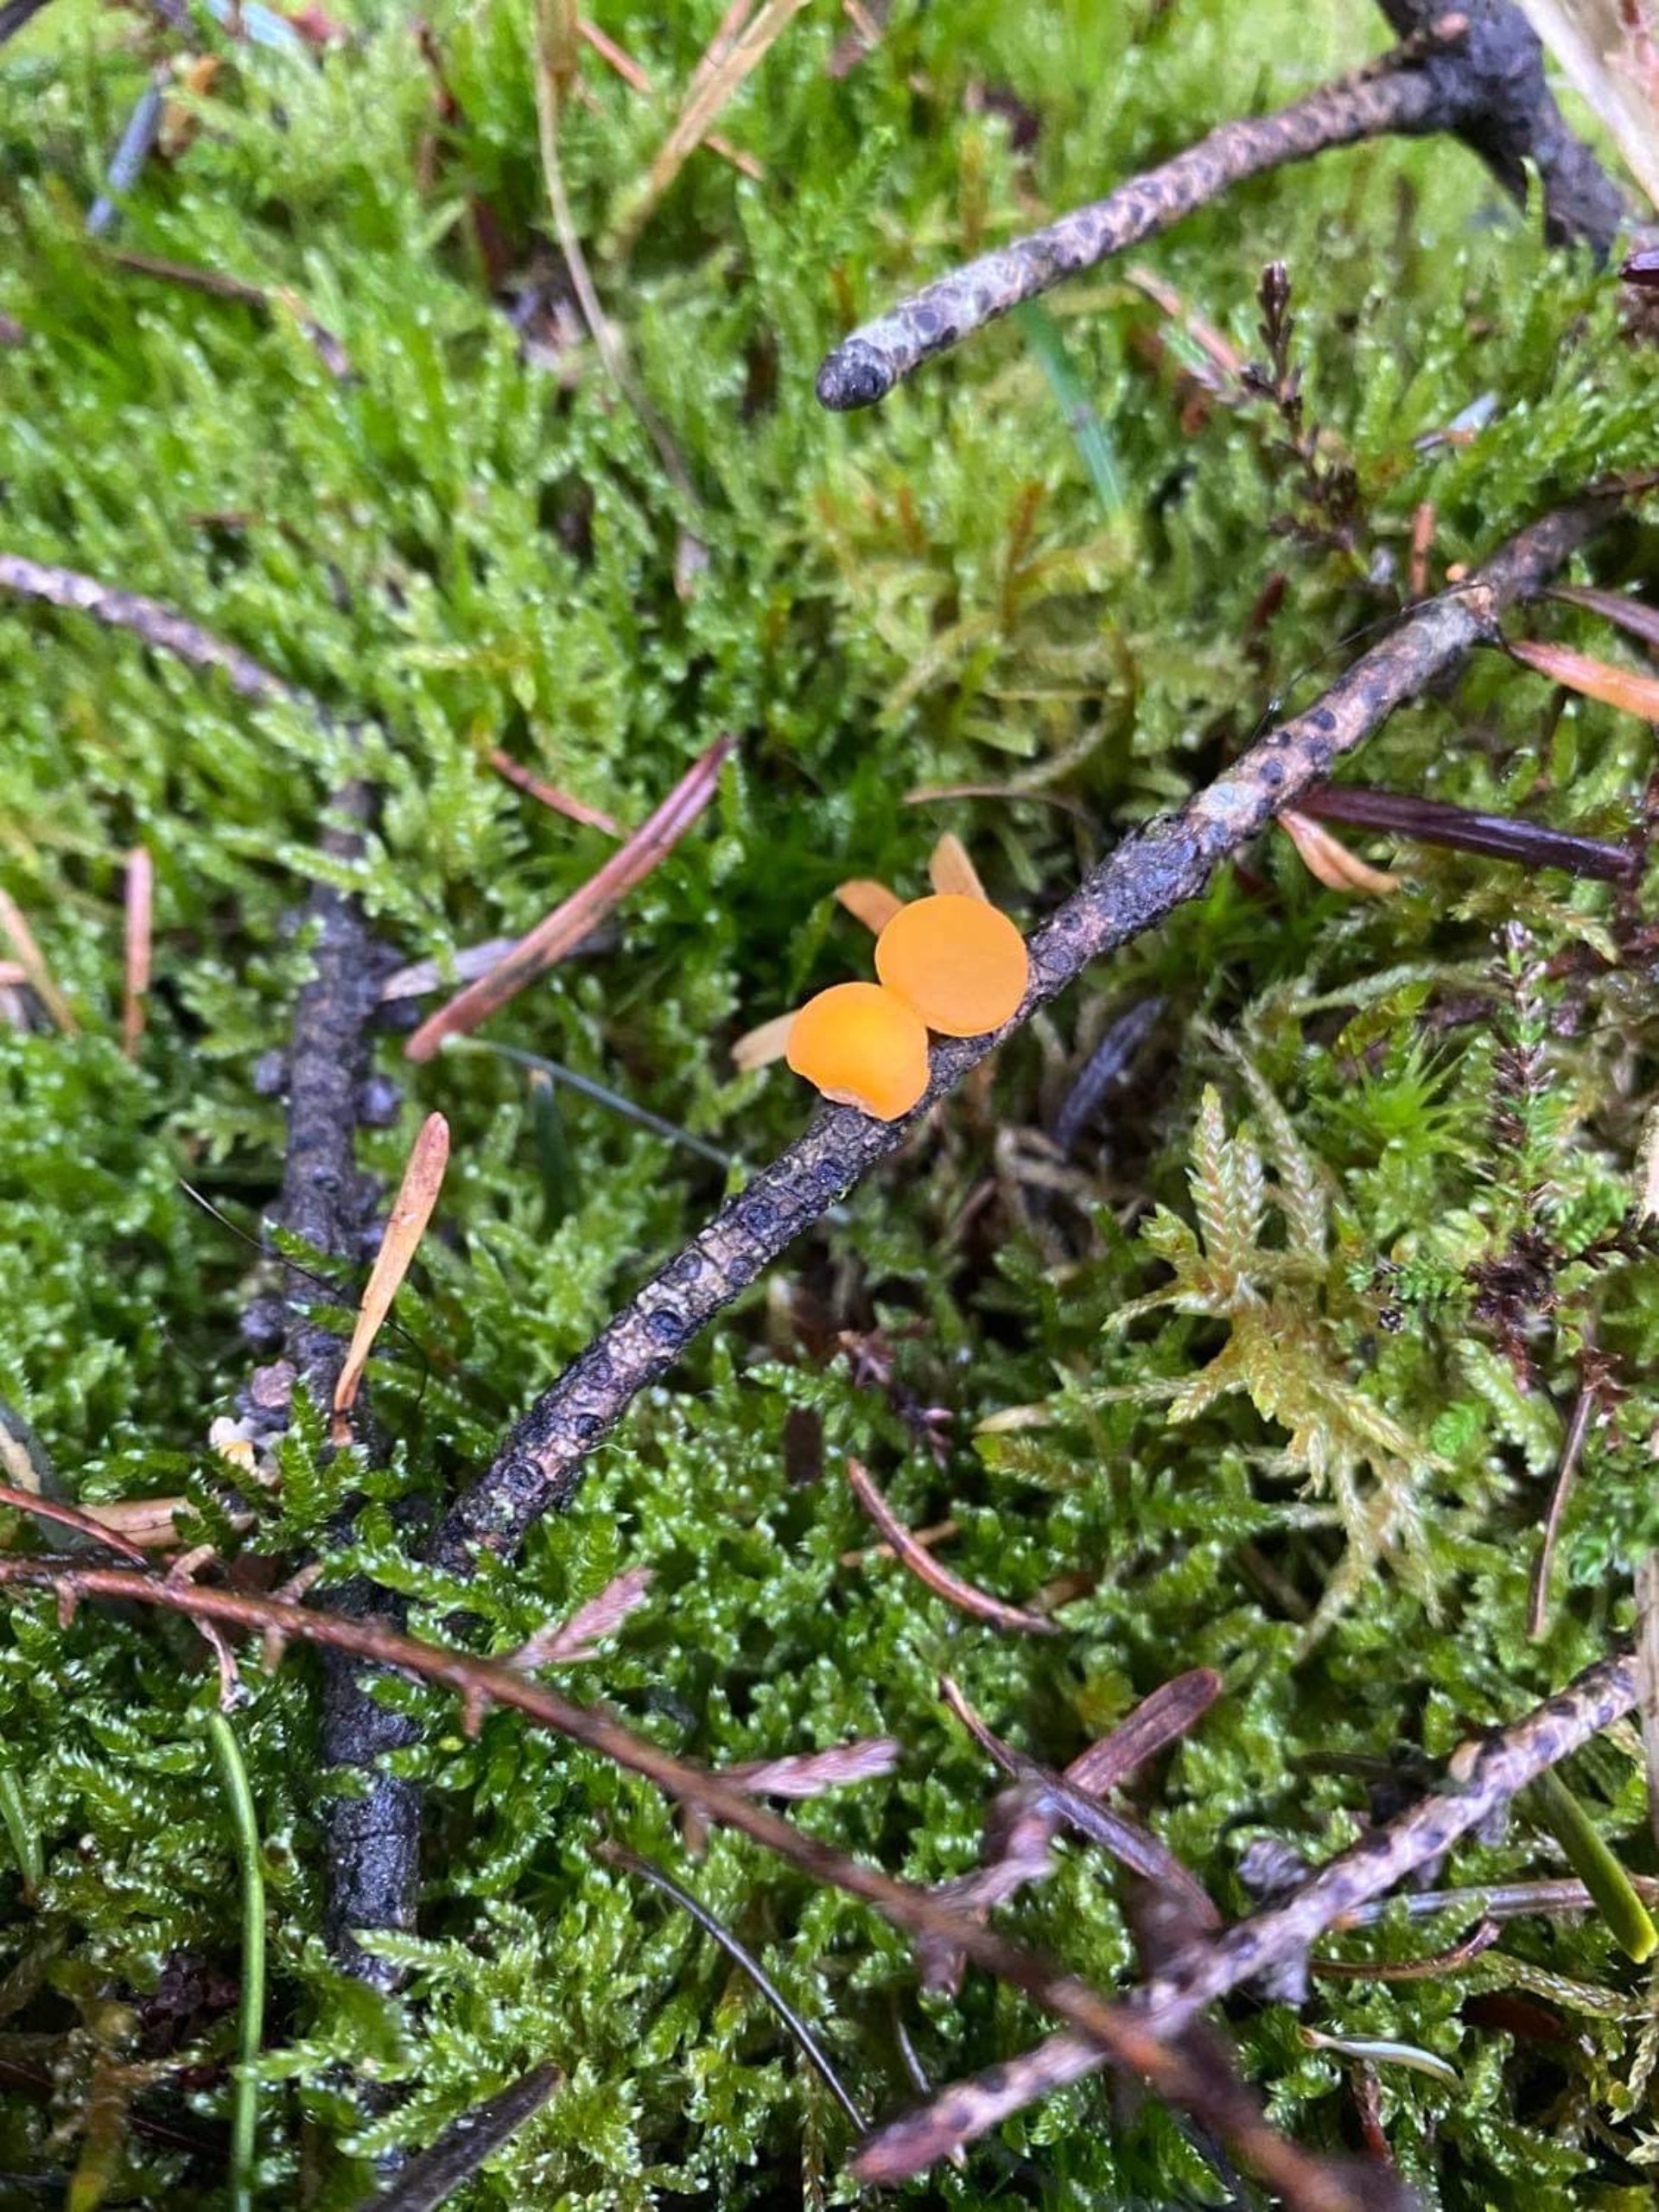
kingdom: Fungi
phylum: Ascomycota
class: Pezizomycetes
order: Pezizales
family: Sarcoscyphaceae
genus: Pithya
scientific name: Pithya vulgaris
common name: Stor dukatbæger
